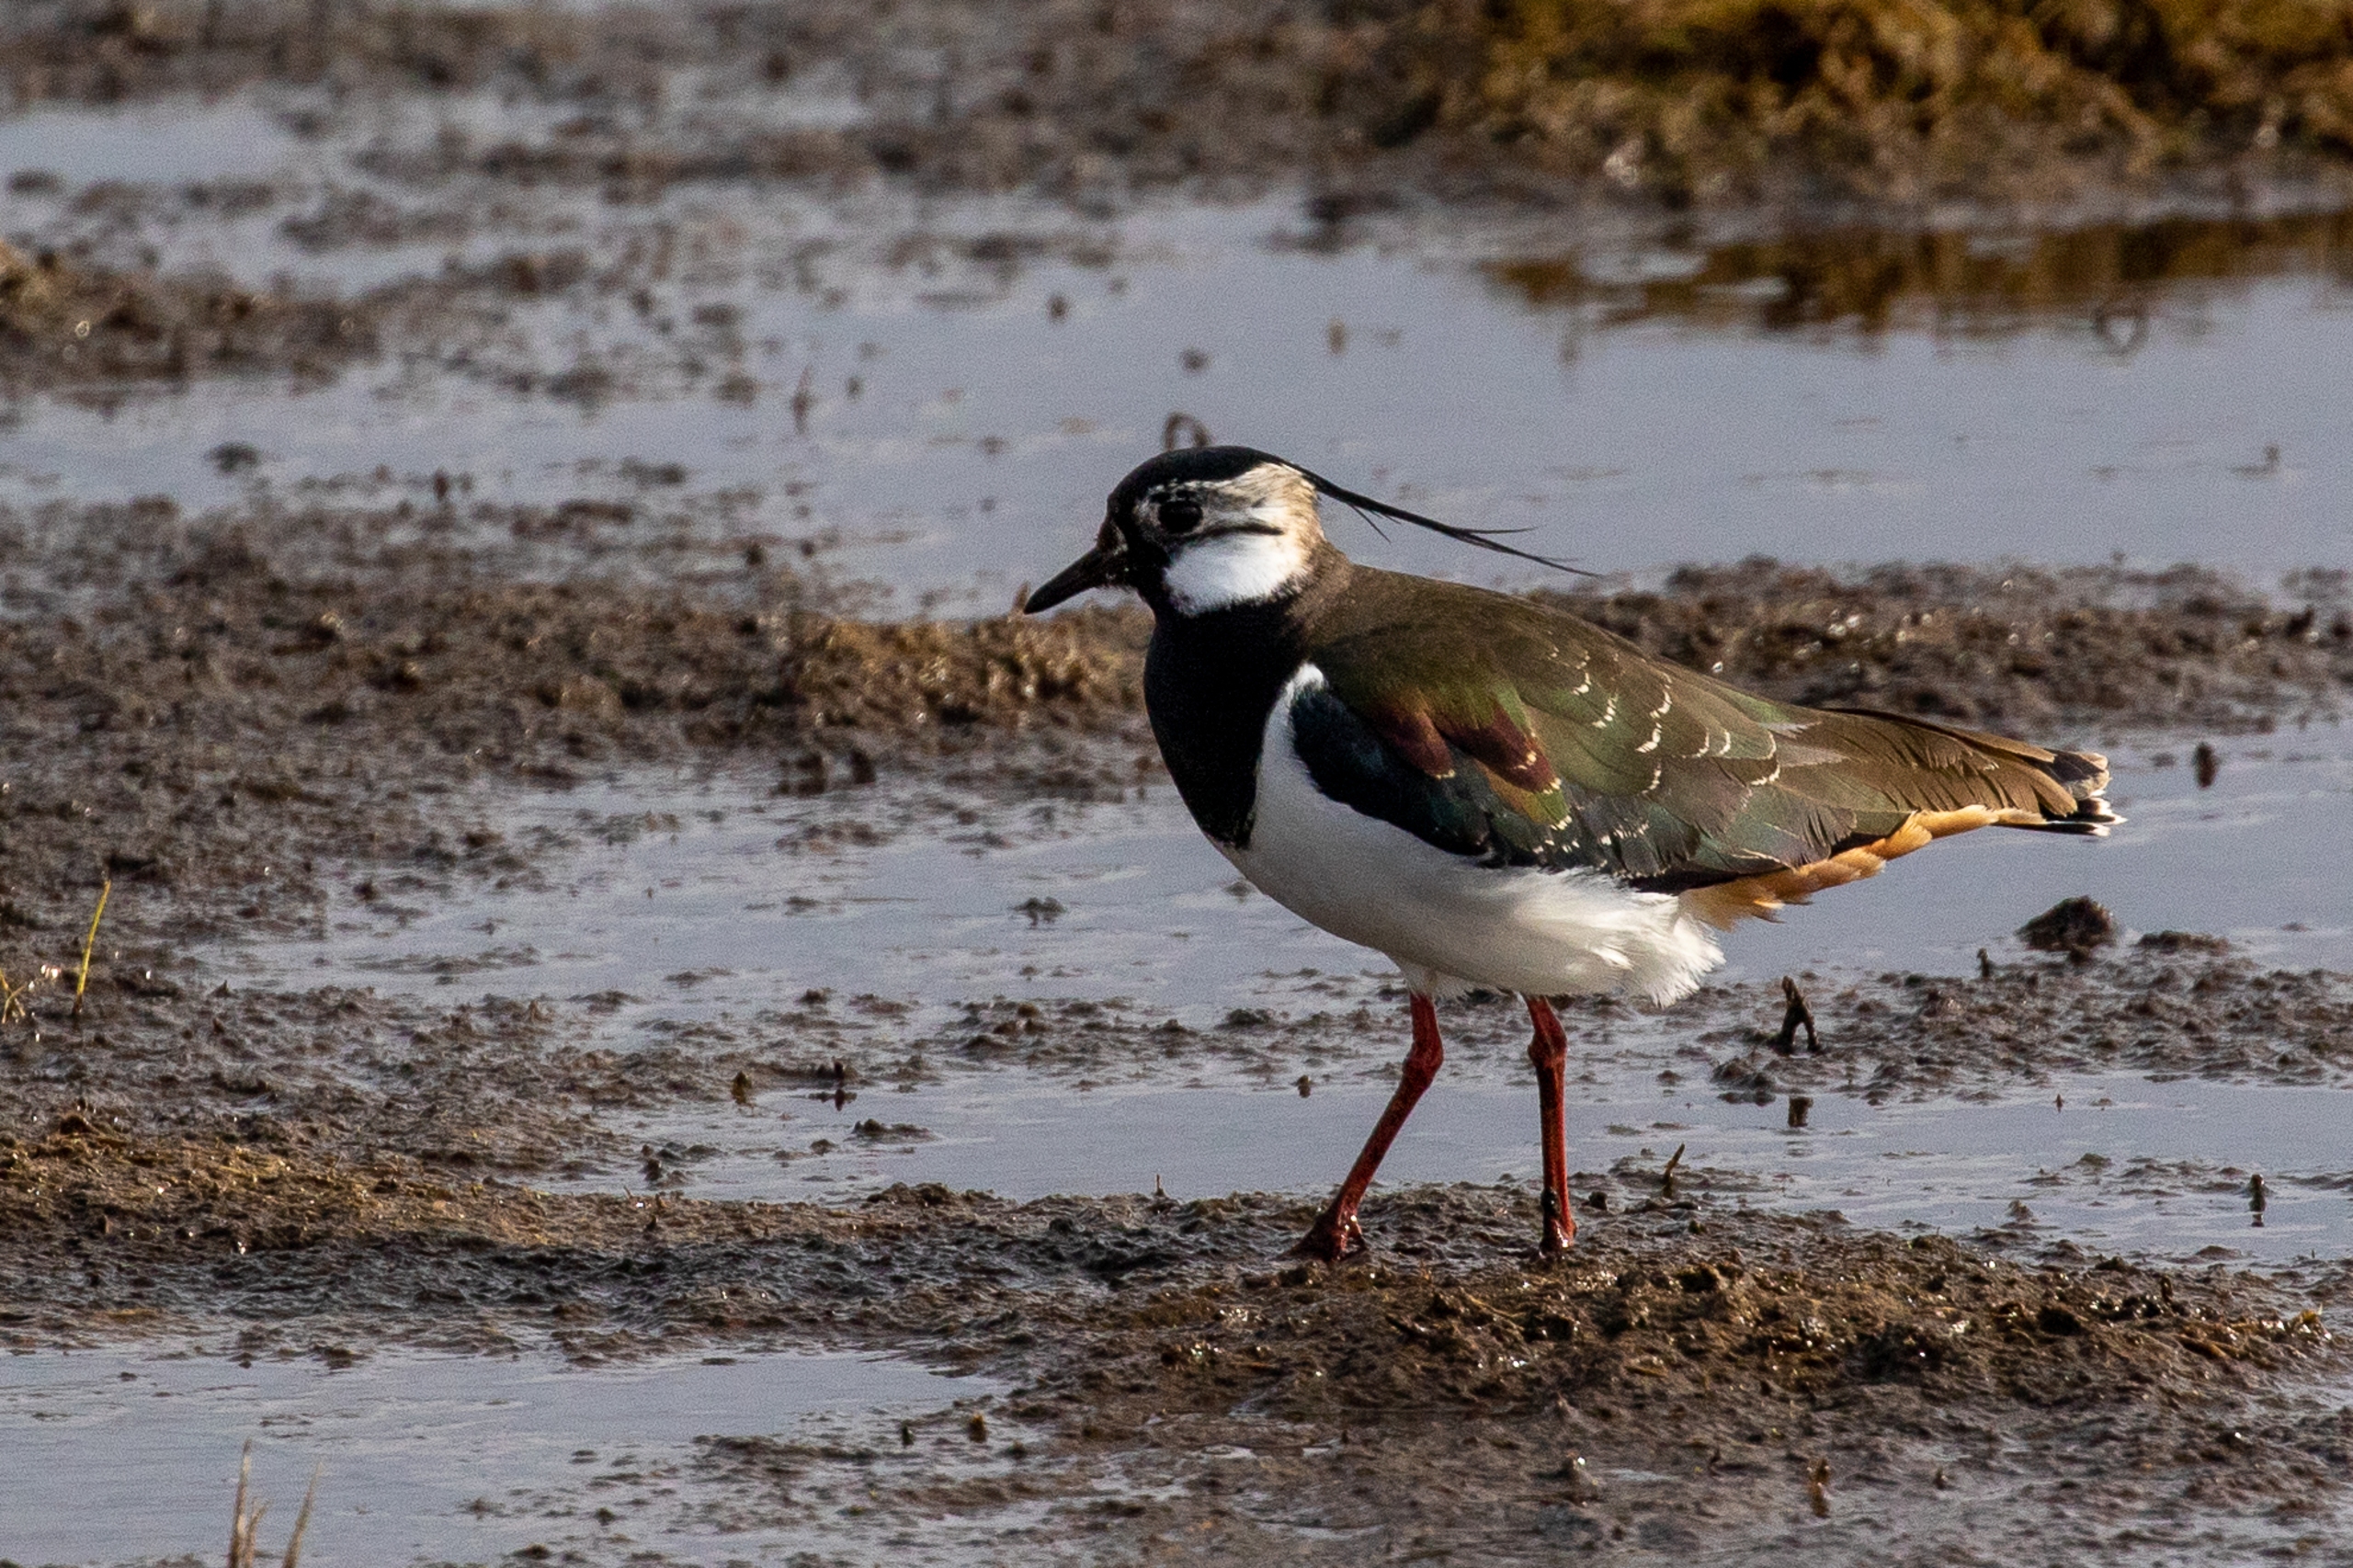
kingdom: Animalia
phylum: Chordata
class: Aves
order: Charadriiformes
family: Charadriidae
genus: Vanellus
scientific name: Vanellus vanellus
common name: Vibe
